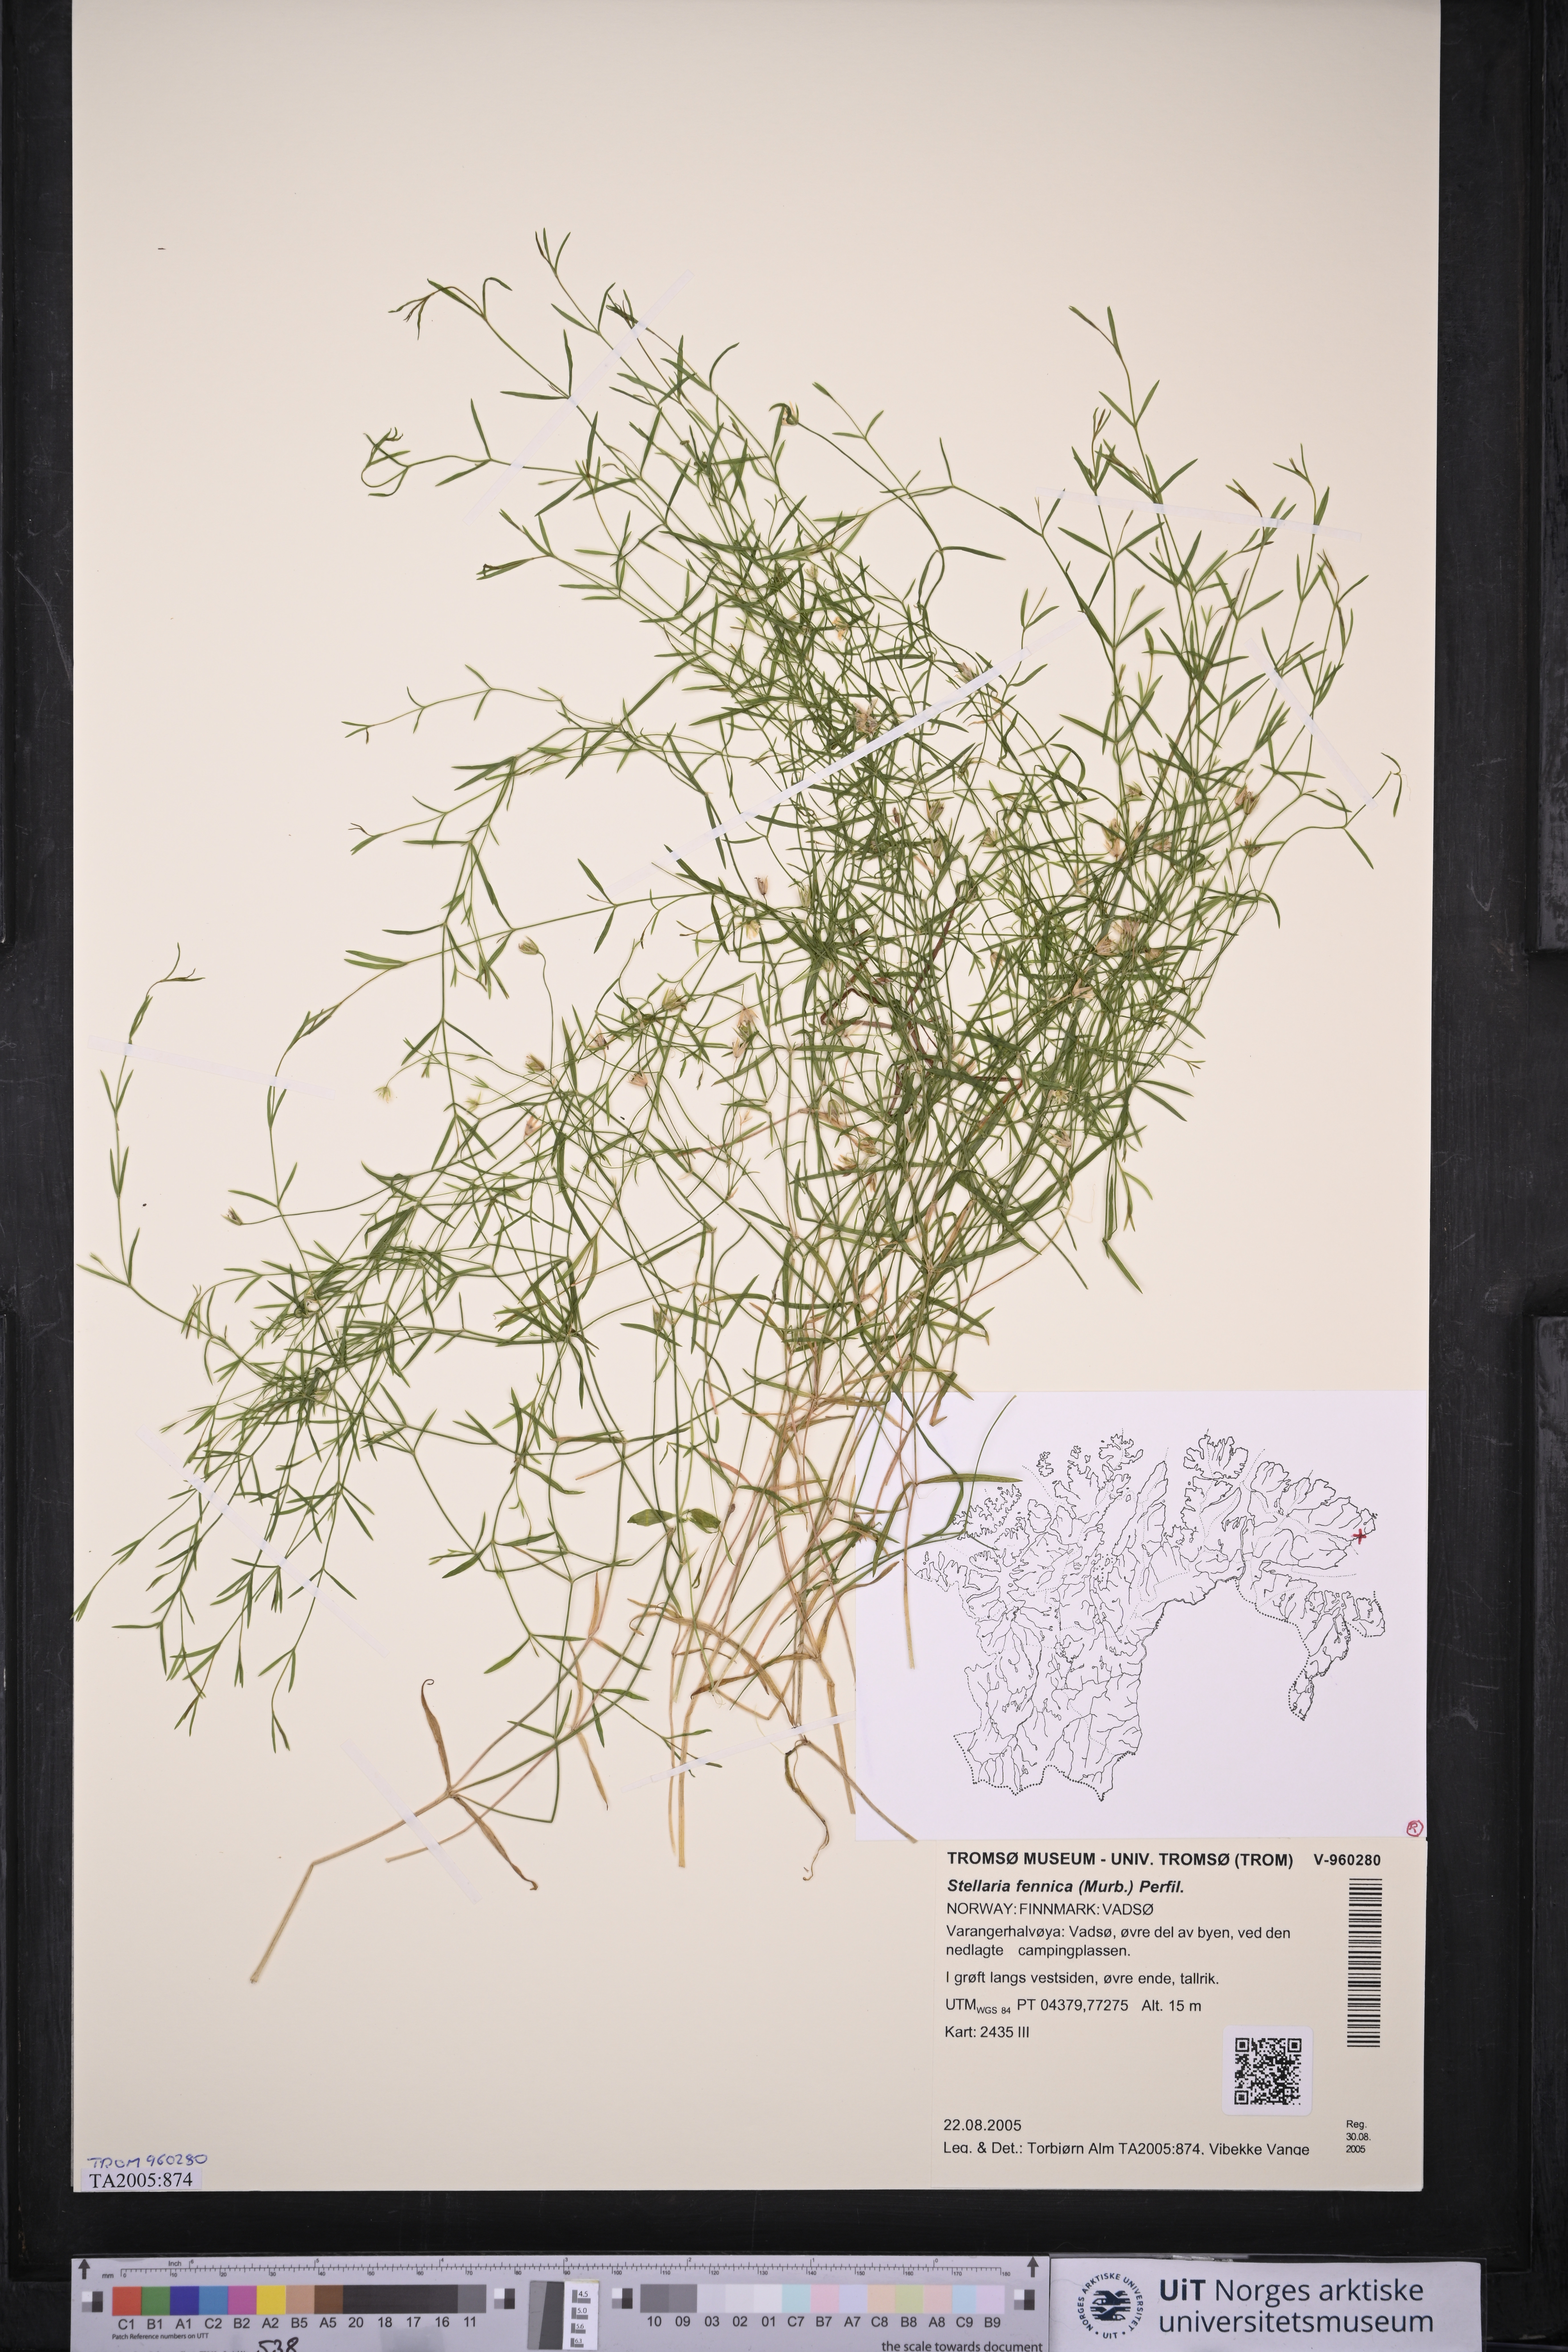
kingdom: Plantae
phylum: Tracheophyta
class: Magnoliopsida
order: Caryophyllales
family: Caryophyllaceae
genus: Stellaria
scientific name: Stellaria fennica
